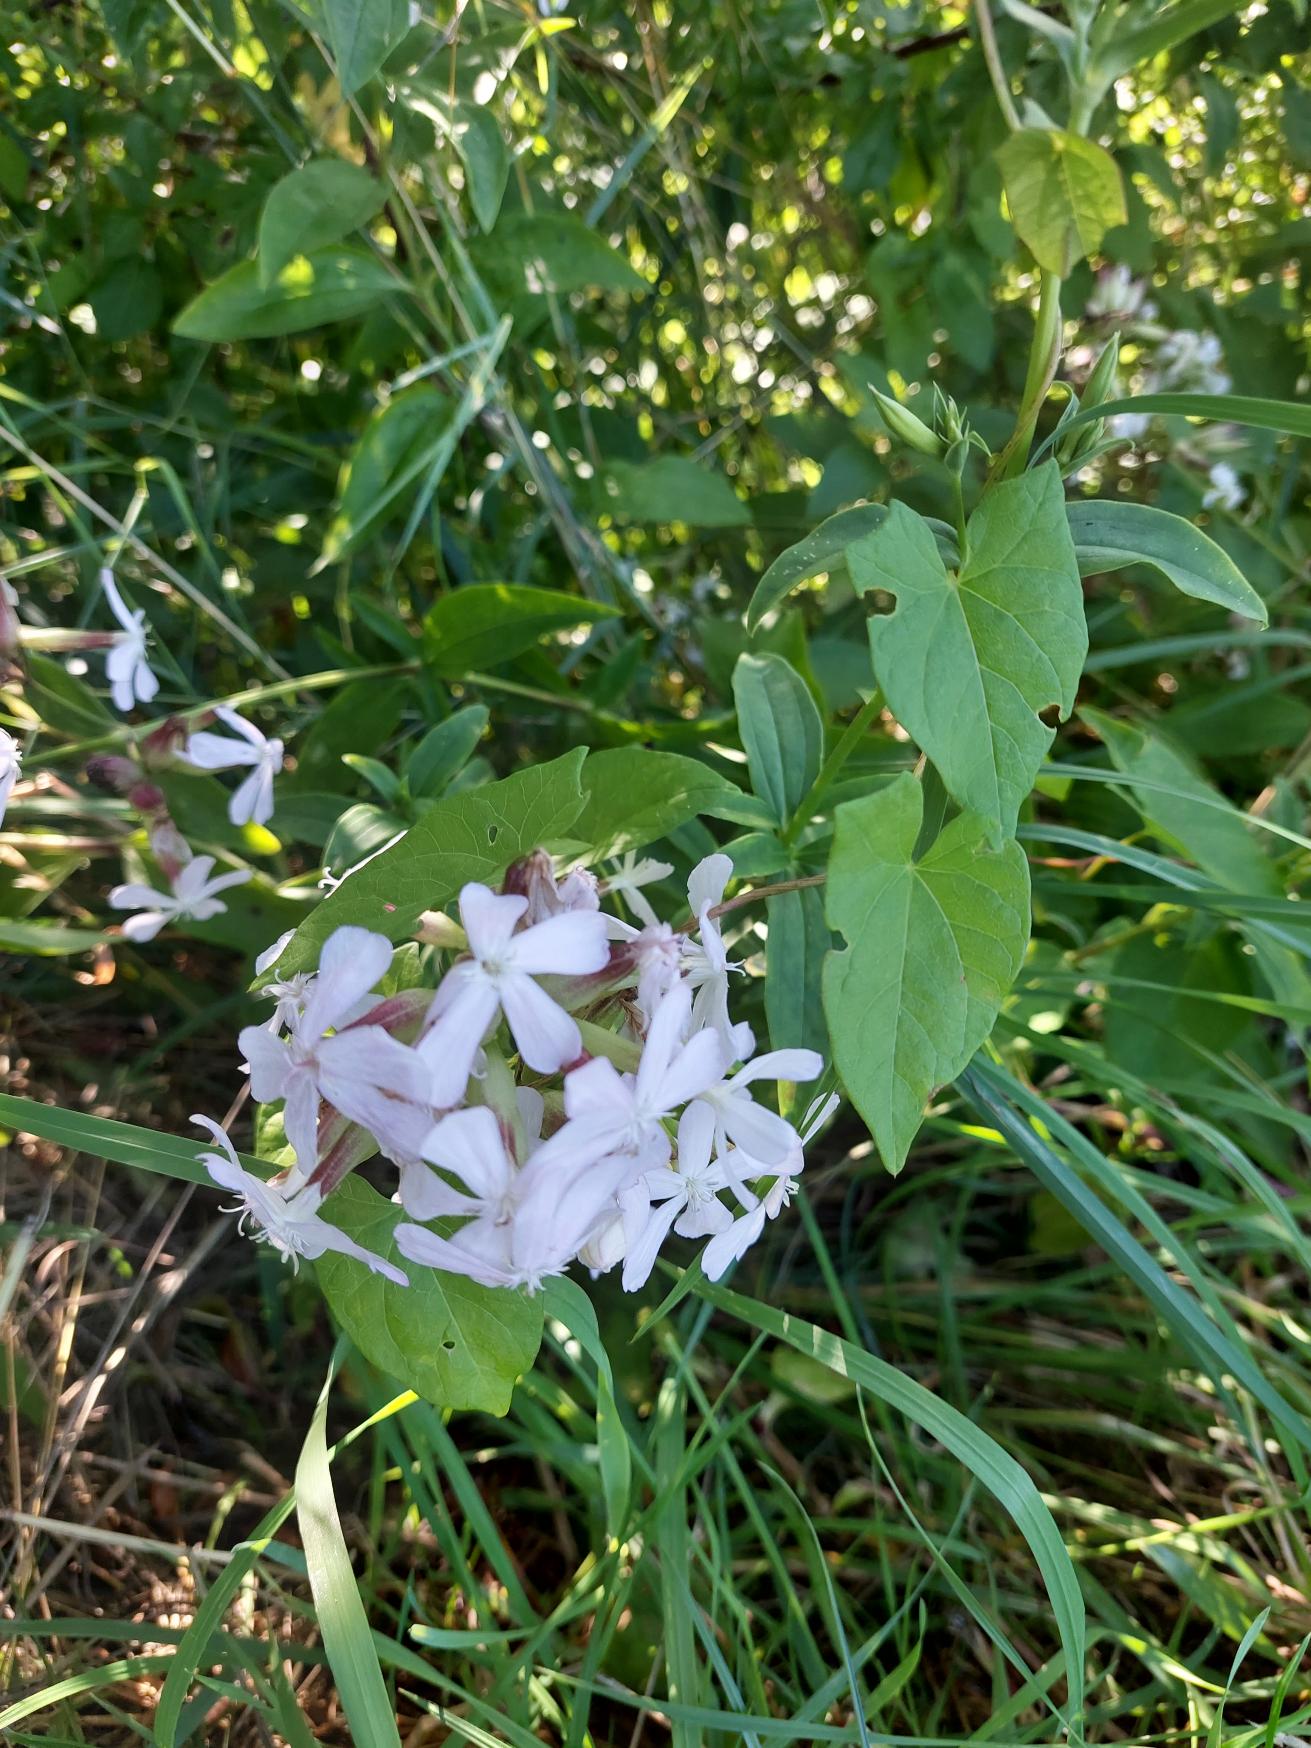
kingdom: Plantae
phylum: Tracheophyta
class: Magnoliopsida
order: Caryophyllales
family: Caryophyllaceae
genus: Saponaria
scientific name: Saponaria officinalis
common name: Sæbeurt
